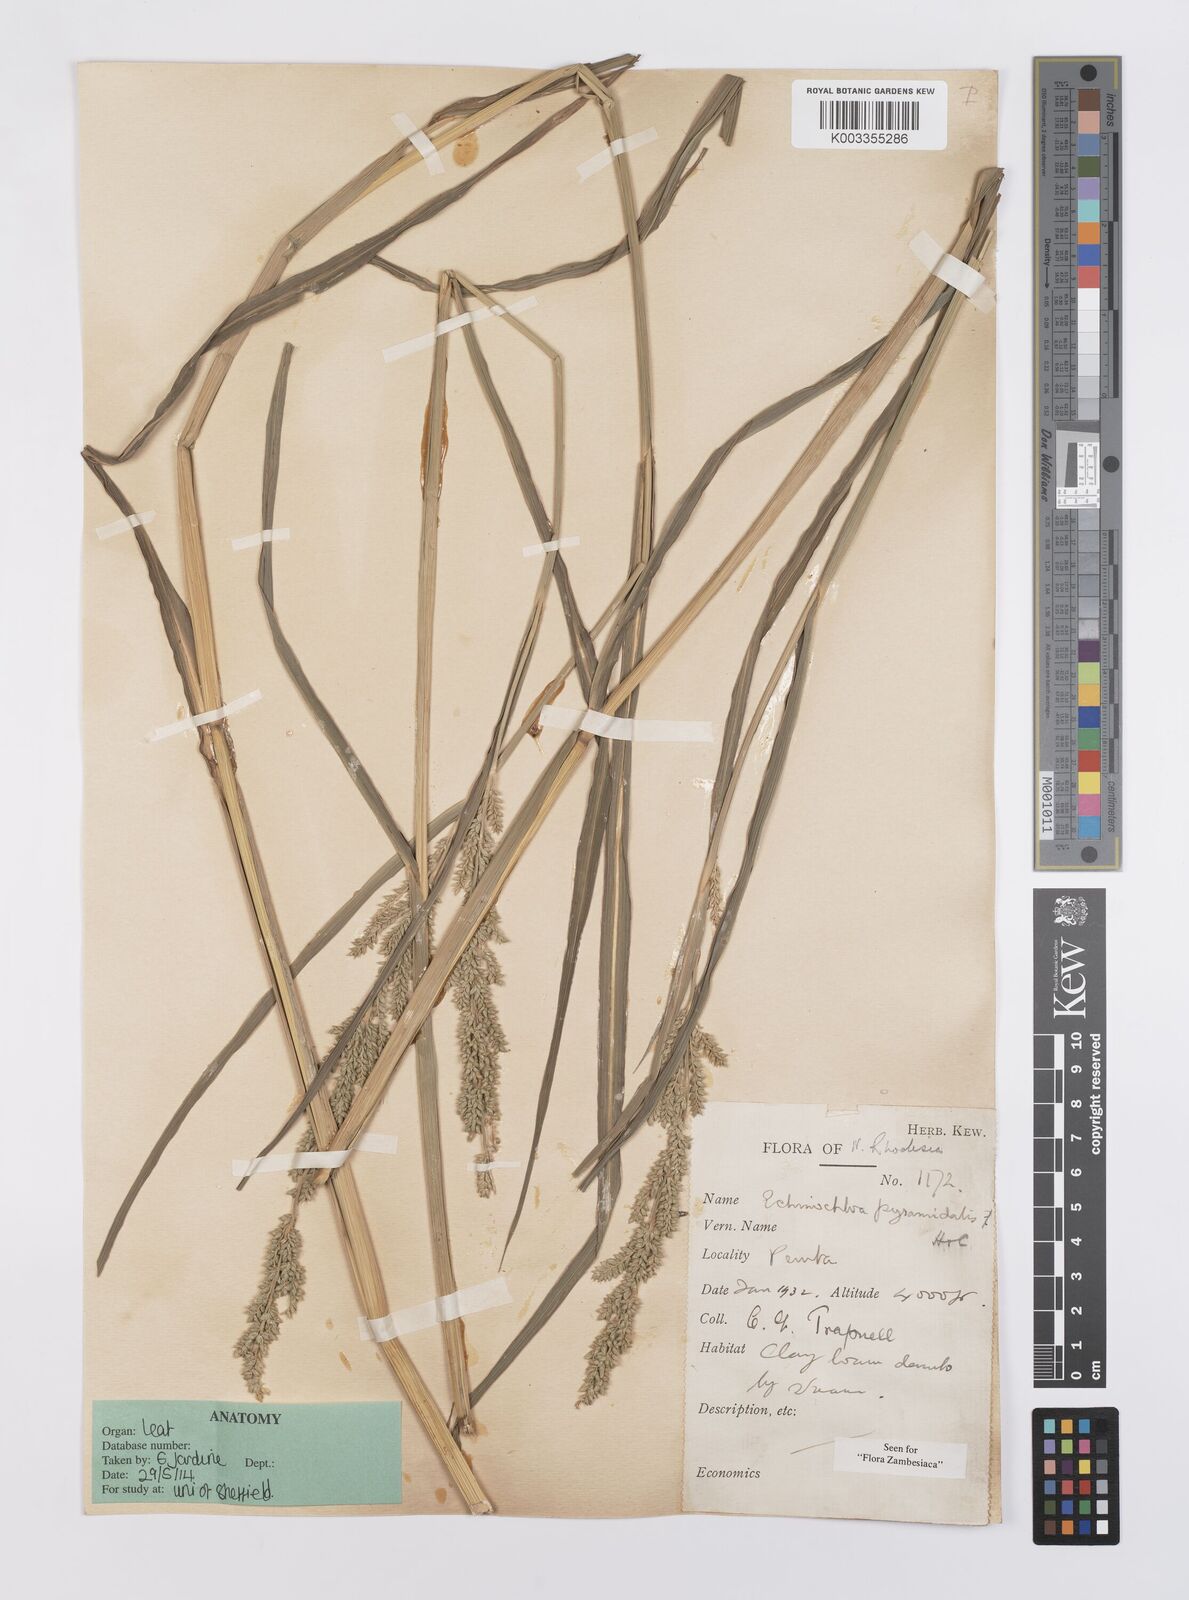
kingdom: Plantae
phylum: Tracheophyta
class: Liliopsida
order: Poales
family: Poaceae
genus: Echinochloa
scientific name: Echinochloa pyramidalis
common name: Antelope grass
